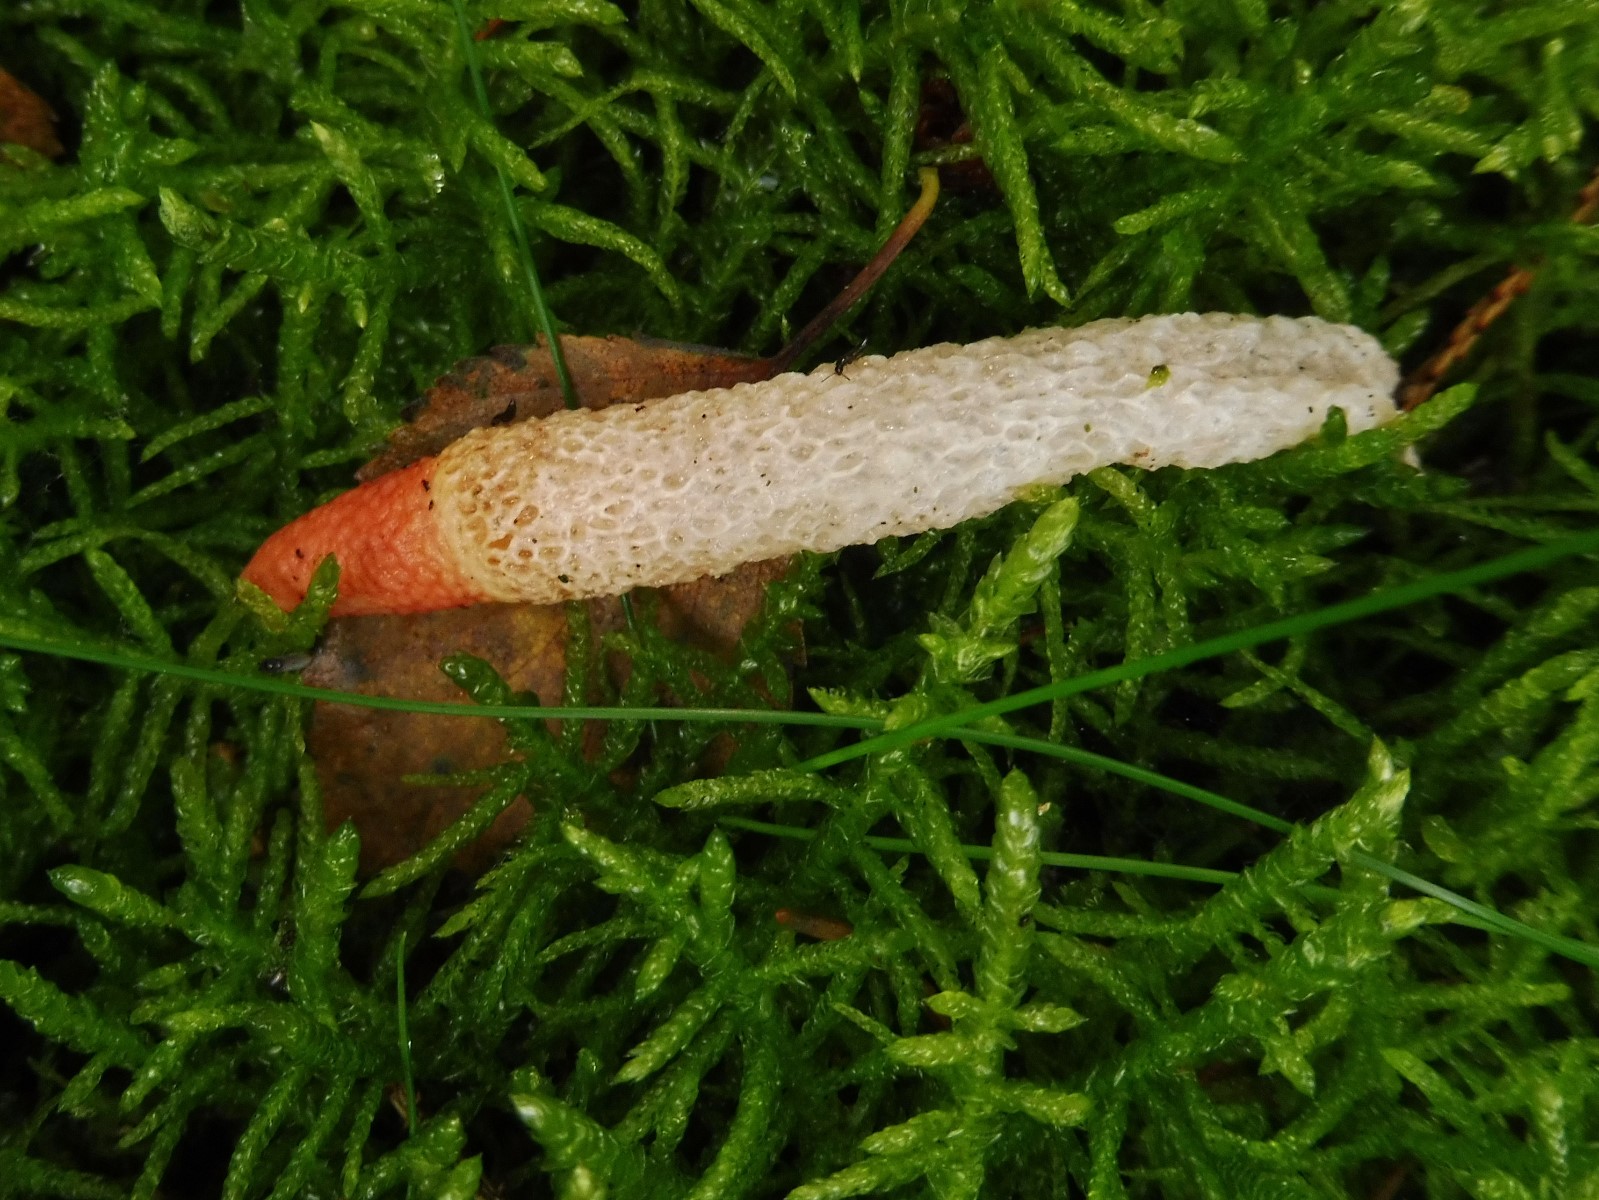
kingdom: Fungi
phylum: Basidiomycota
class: Agaricomycetes
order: Phallales
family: Phallaceae
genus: Mutinus
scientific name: Mutinus caninus
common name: hunde-stinksvamp
